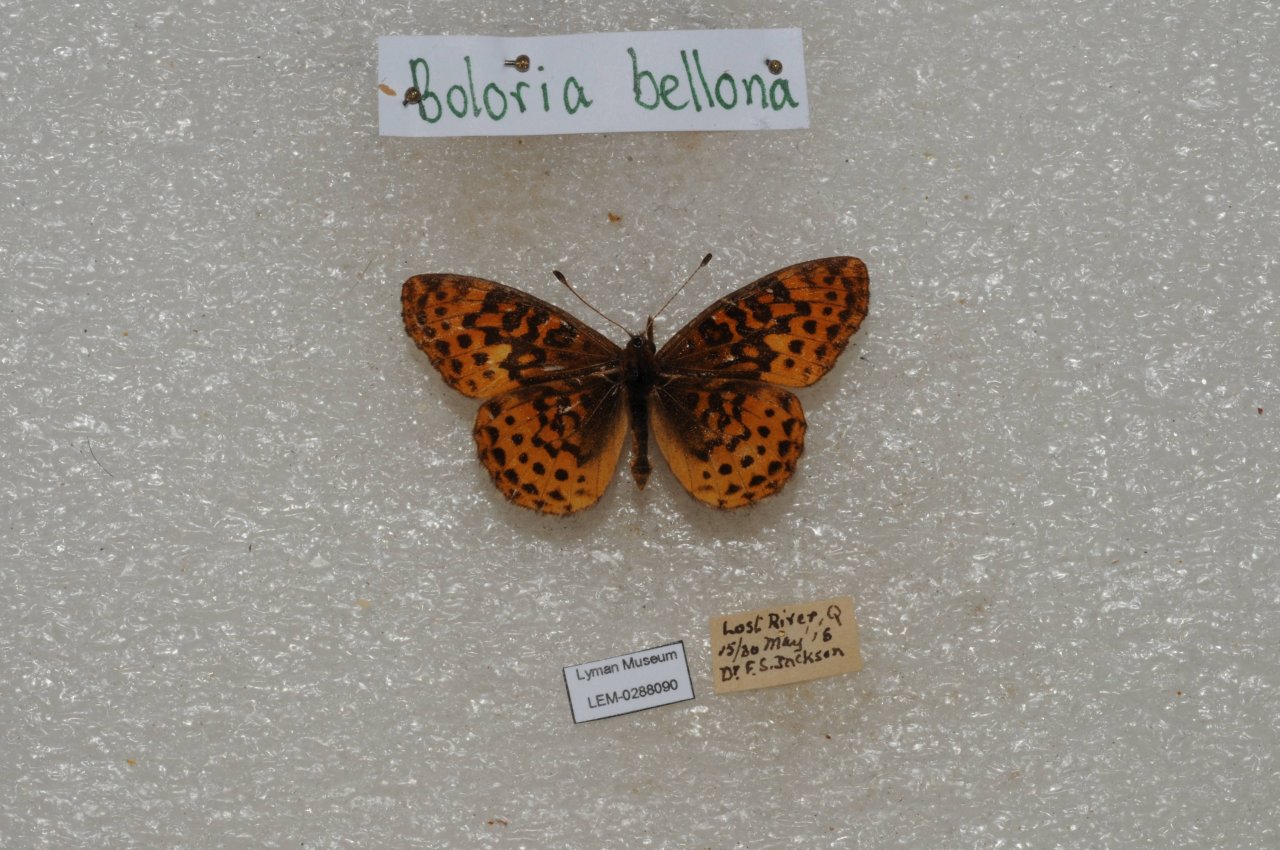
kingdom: Animalia
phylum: Arthropoda
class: Insecta
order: Lepidoptera
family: Nymphalidae
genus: Clossiana
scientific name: Clossiana toddi
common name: Meadow Fritillary
